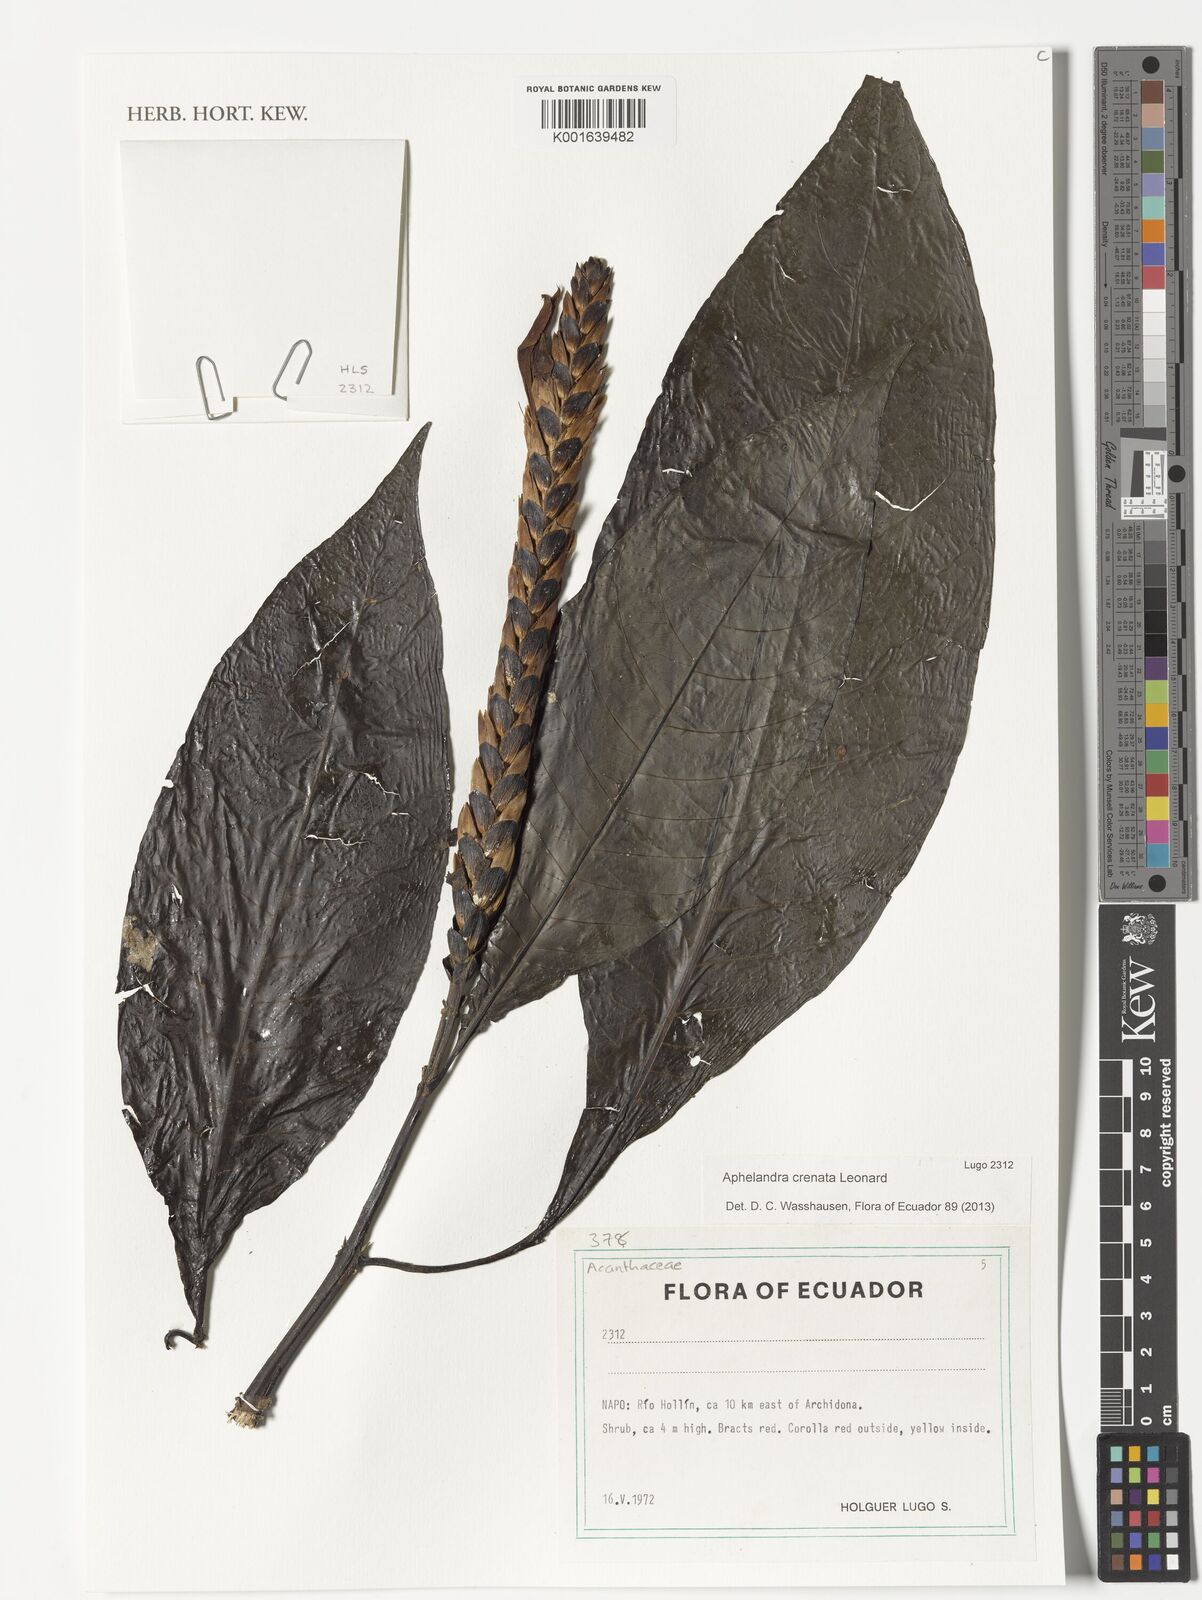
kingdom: Plantae
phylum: Tracheophyta
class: Magnoliopsida
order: Lamiales
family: Acanthaceae
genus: Aphelandra
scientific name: Aphelandra crenata
